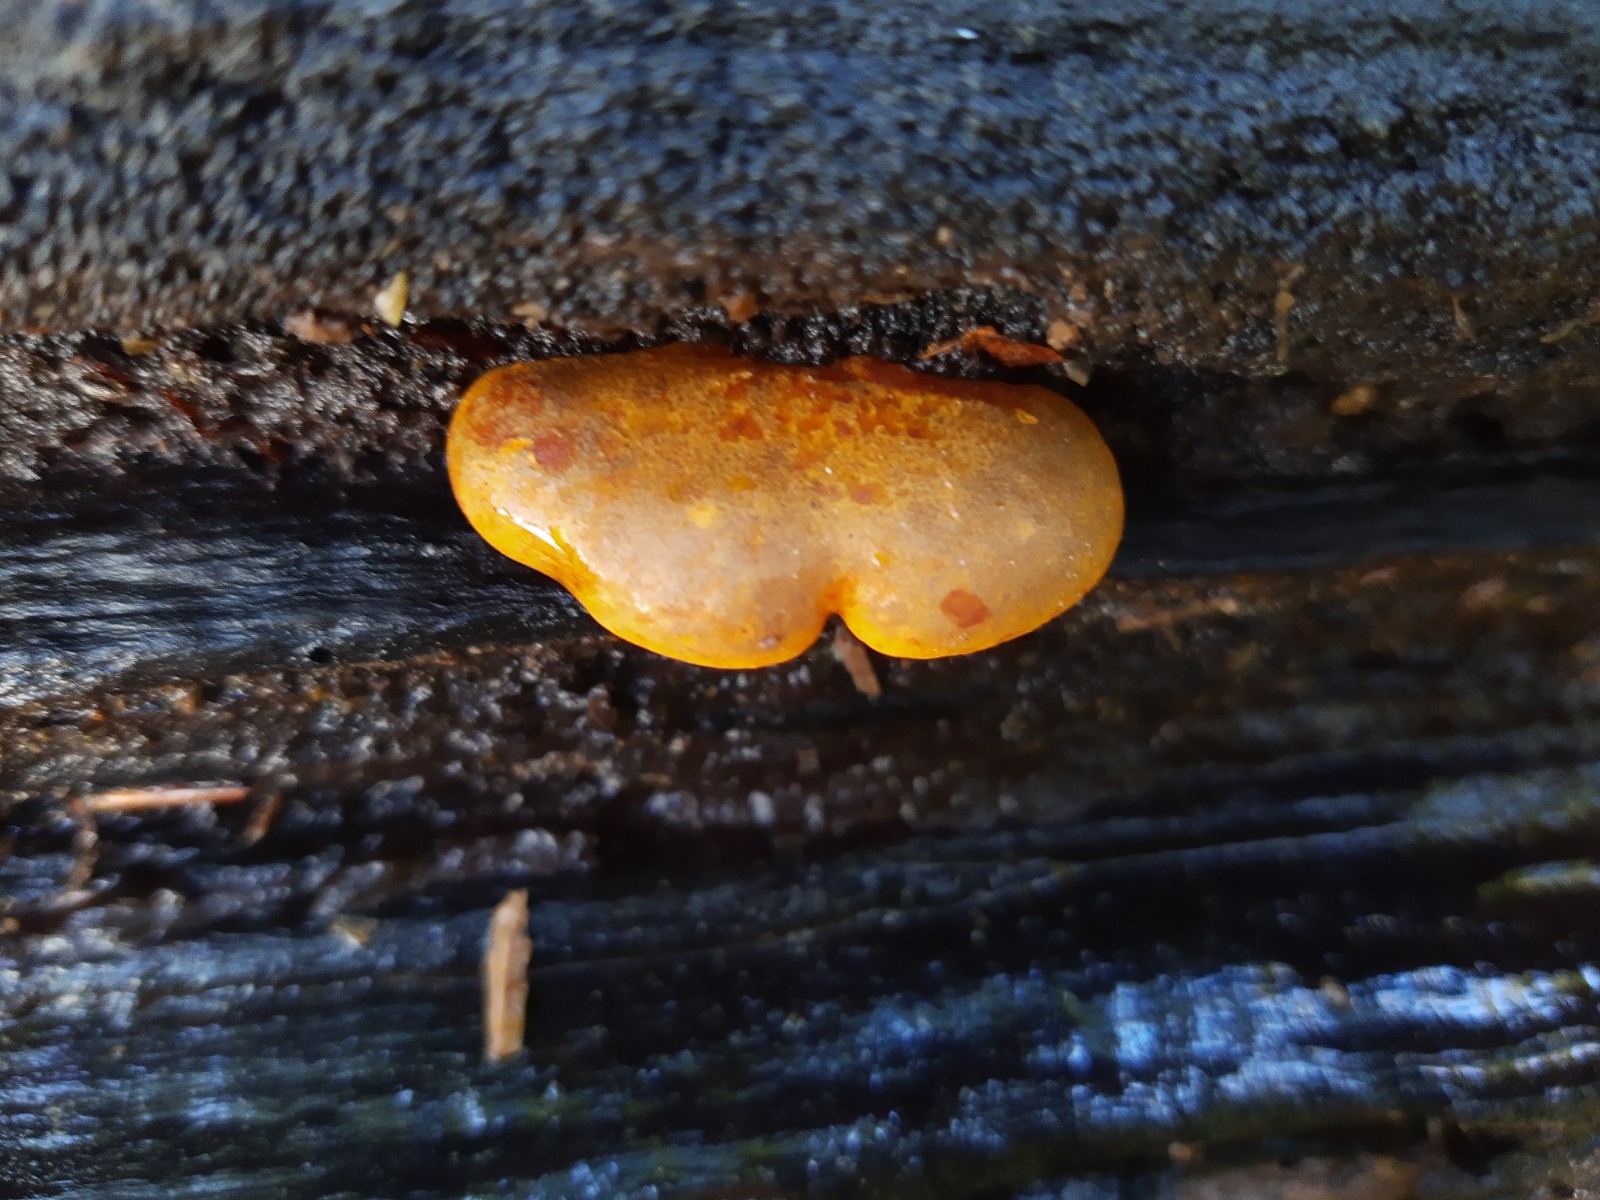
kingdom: Fungi
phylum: Basidiomycota
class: Agaricomycetes
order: Agaricales
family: Sarcomyxaceae
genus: Sarcomyxa
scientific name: Sarcomyxa serotina
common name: gummihat
